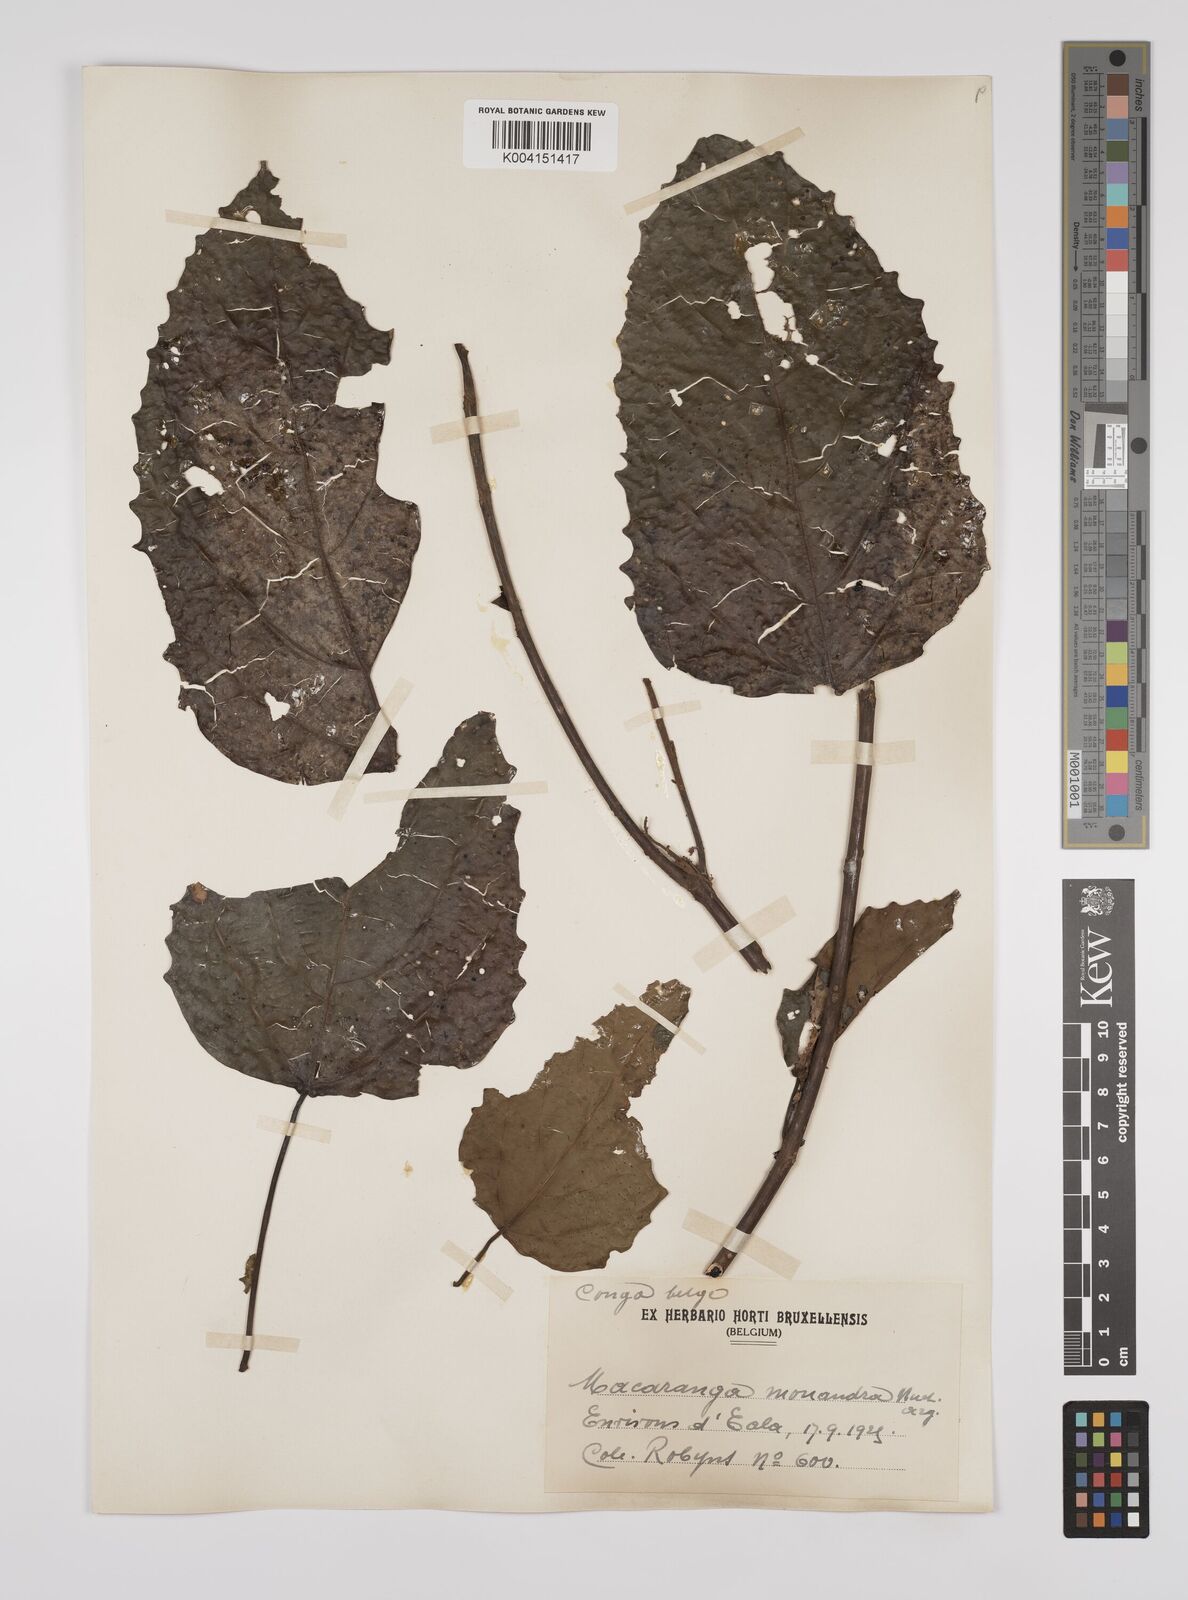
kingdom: Plantae
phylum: Tracheophyta
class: Magnoliopsida
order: Malpighiales
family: Euphorbiaceae
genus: Macaranga
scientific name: Macaranga monandra
